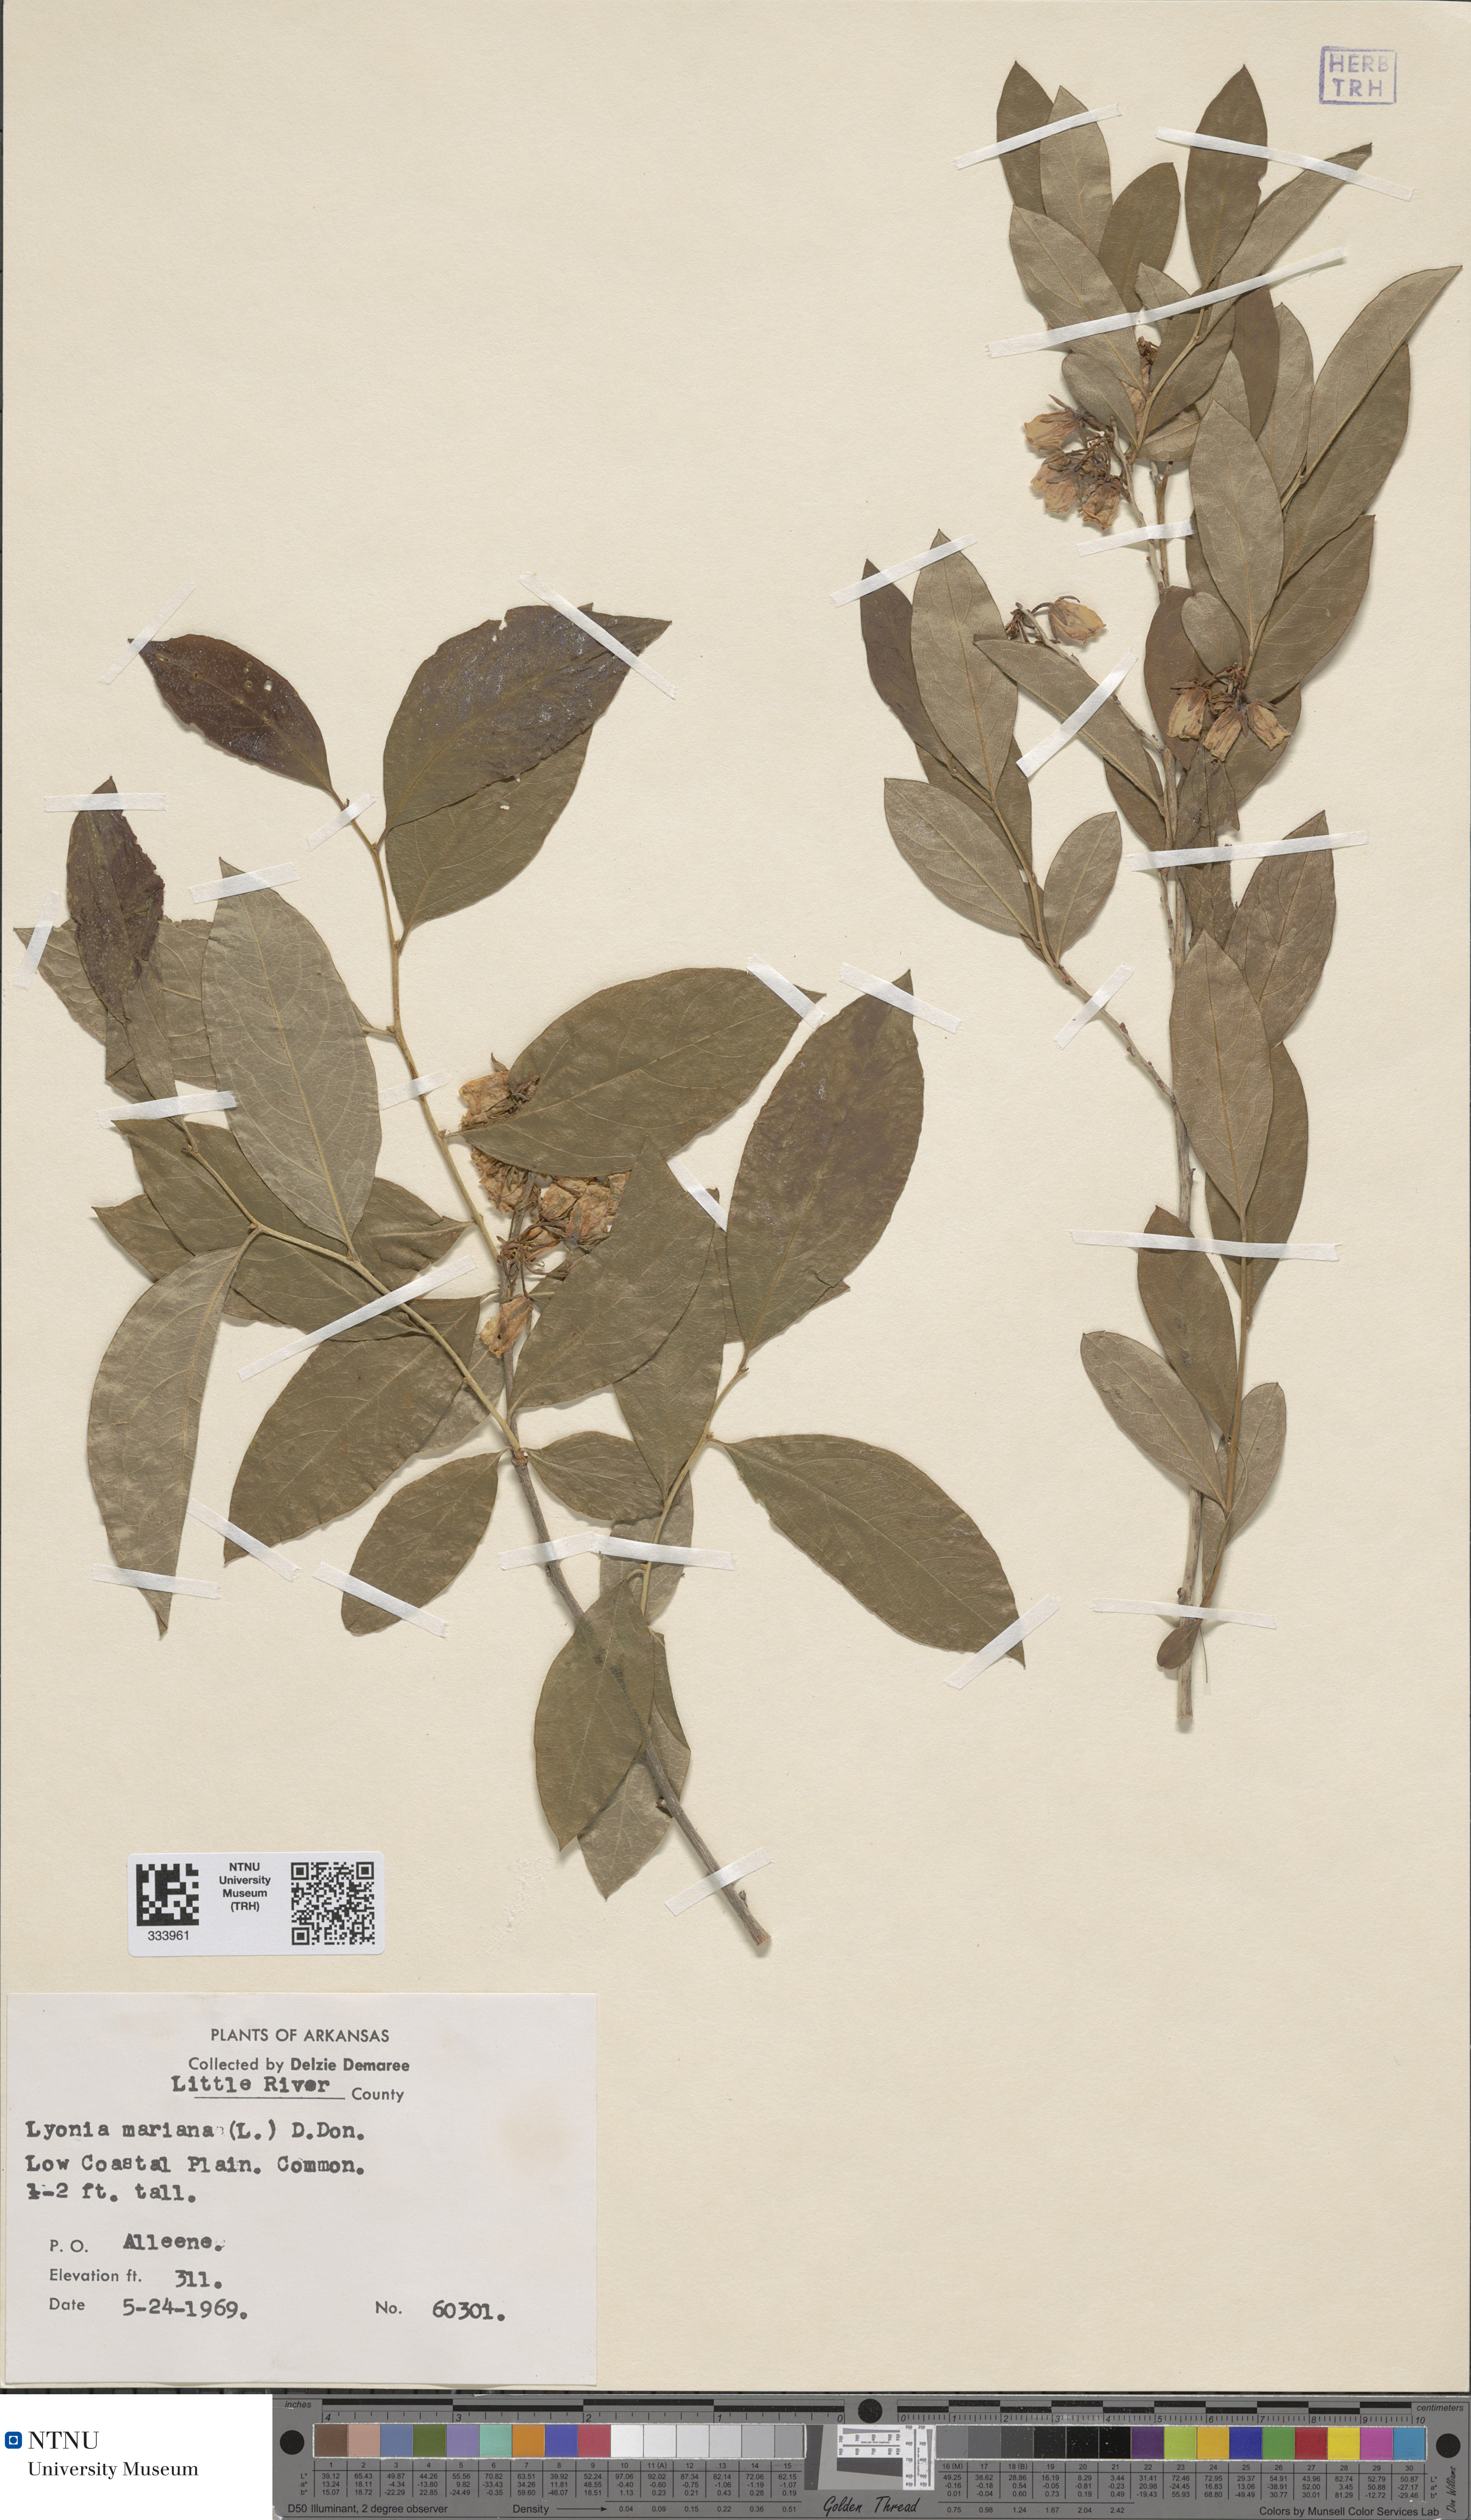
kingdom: Plantae
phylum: Tracheophyta
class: Magnoliopsida
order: Ericales
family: Ericaceae
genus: Lyonia
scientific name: Lyonia mariana
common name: Staggerbush
